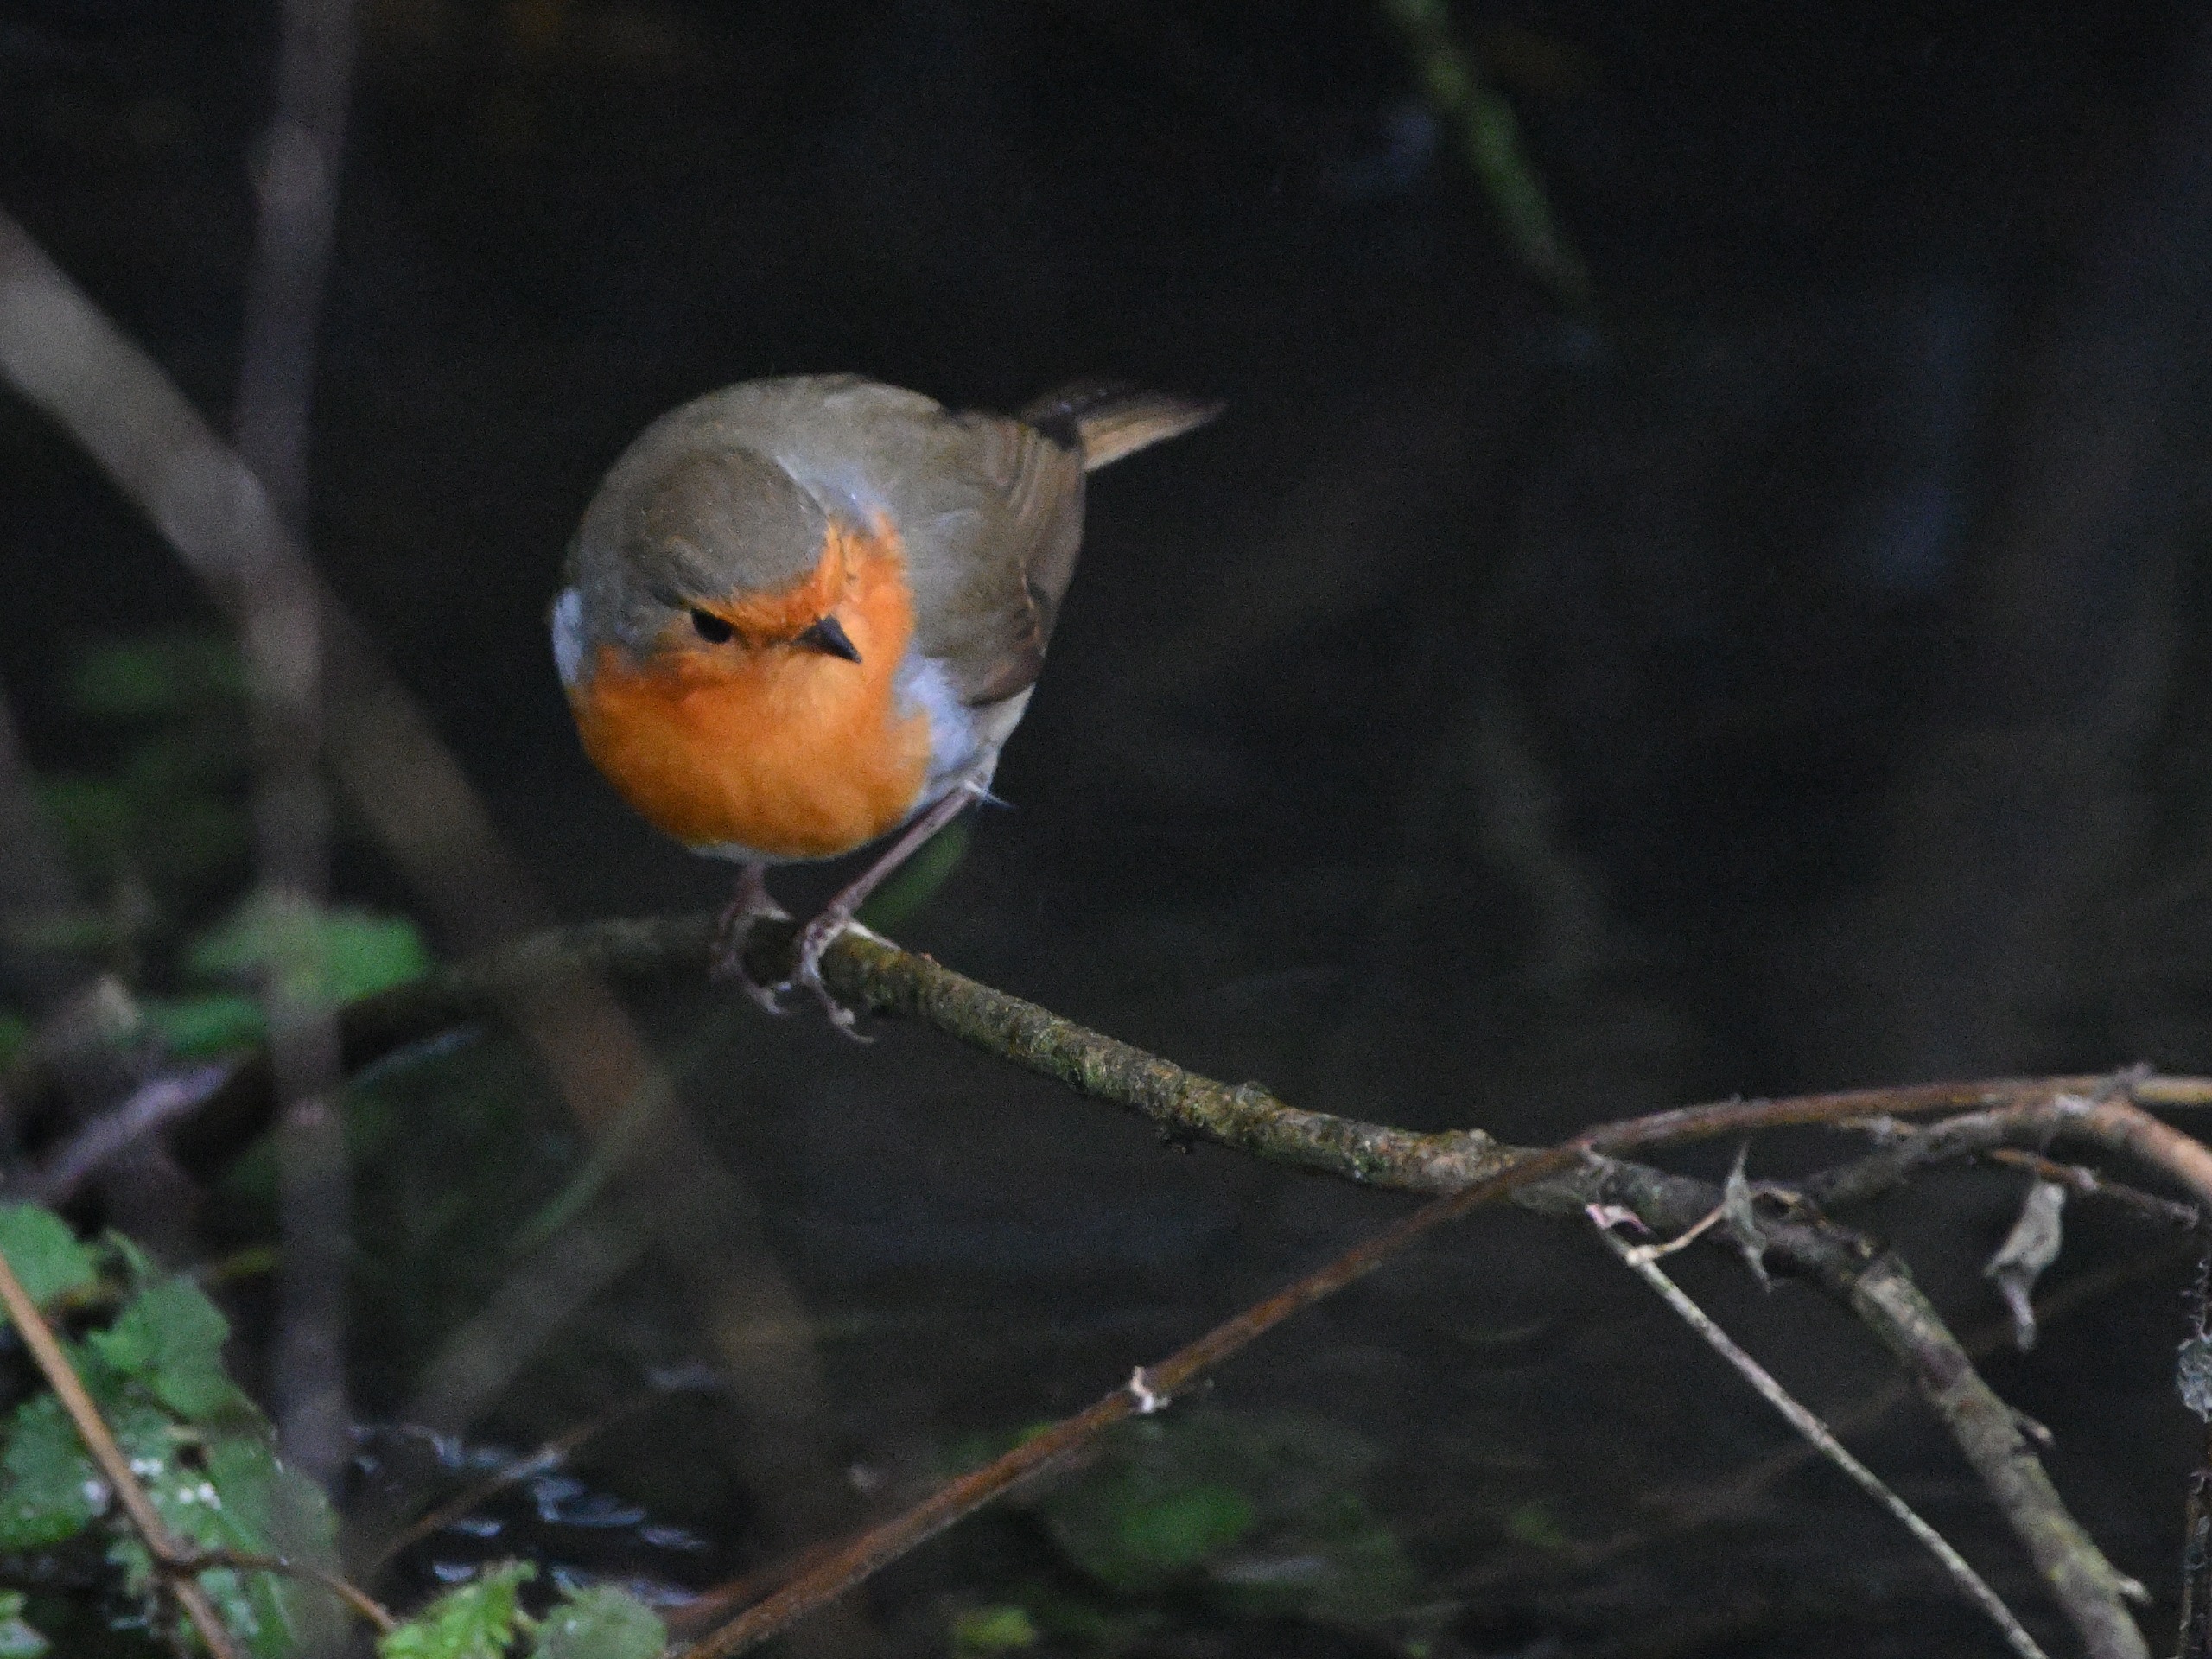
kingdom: Animalia
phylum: Chordata
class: Aves
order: Passeriformes
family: Muscicapidae
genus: Erithacus
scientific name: Erithacus rubecula
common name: Rødhals/rødkælk
